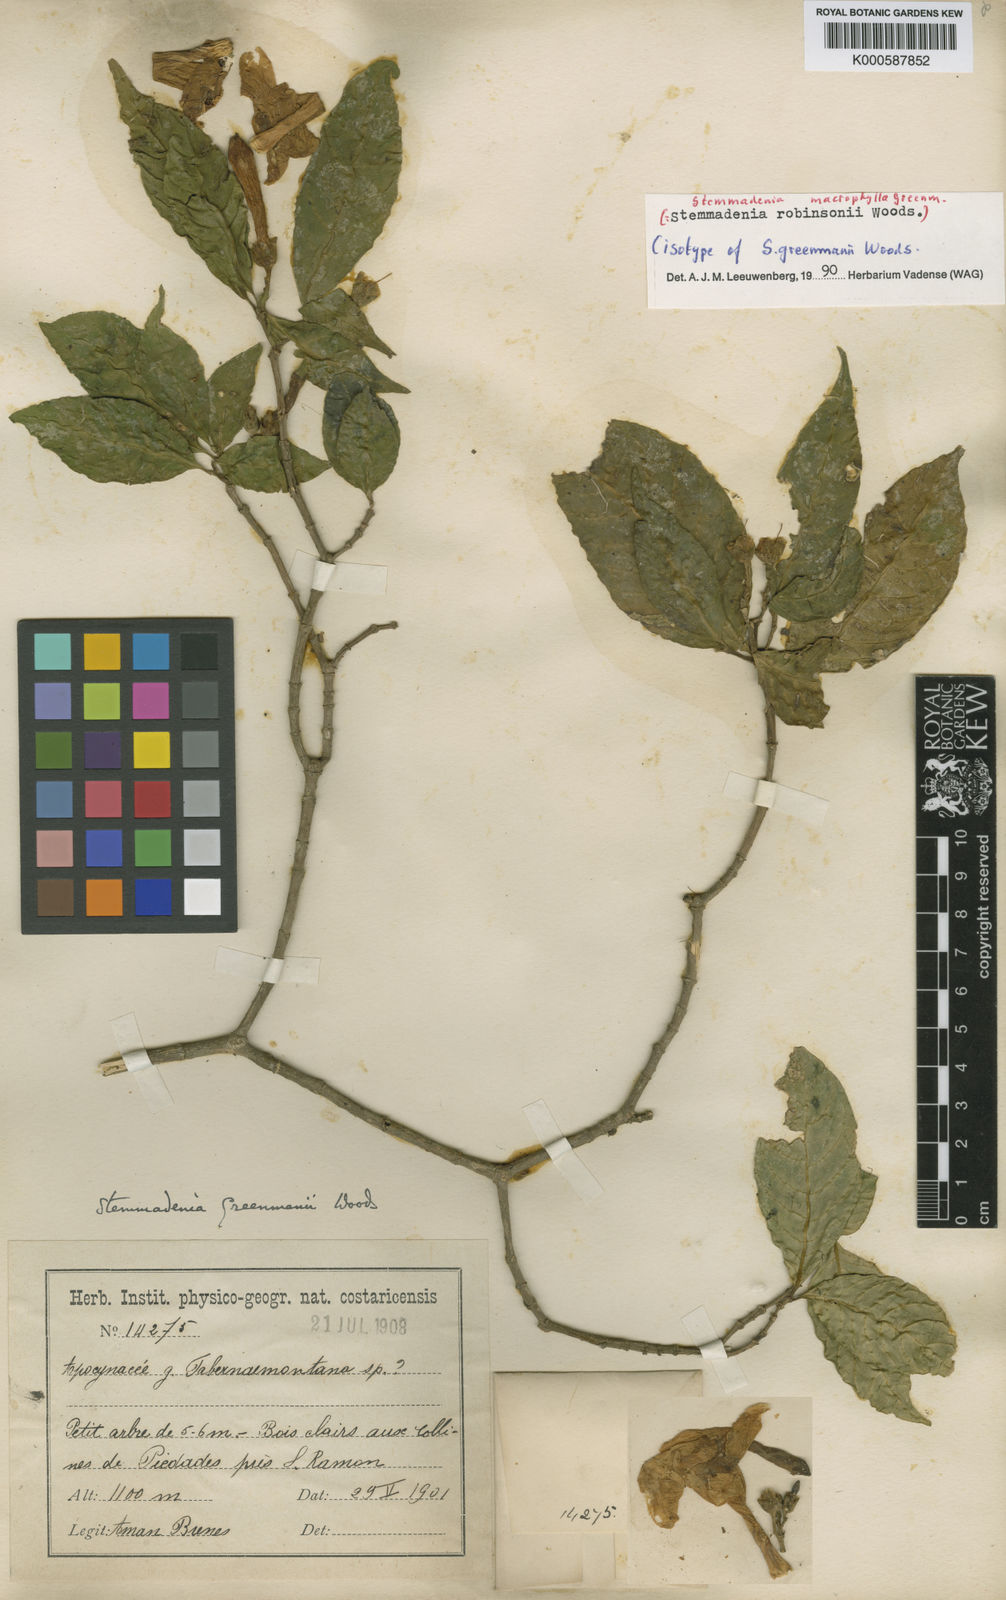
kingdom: Plantae
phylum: Tracheophyta
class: Magnoliopsida
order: Gentianales
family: Apocynaceae
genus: Tabernaemontana
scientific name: Tabernaemontana litoralis
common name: Milkwood
